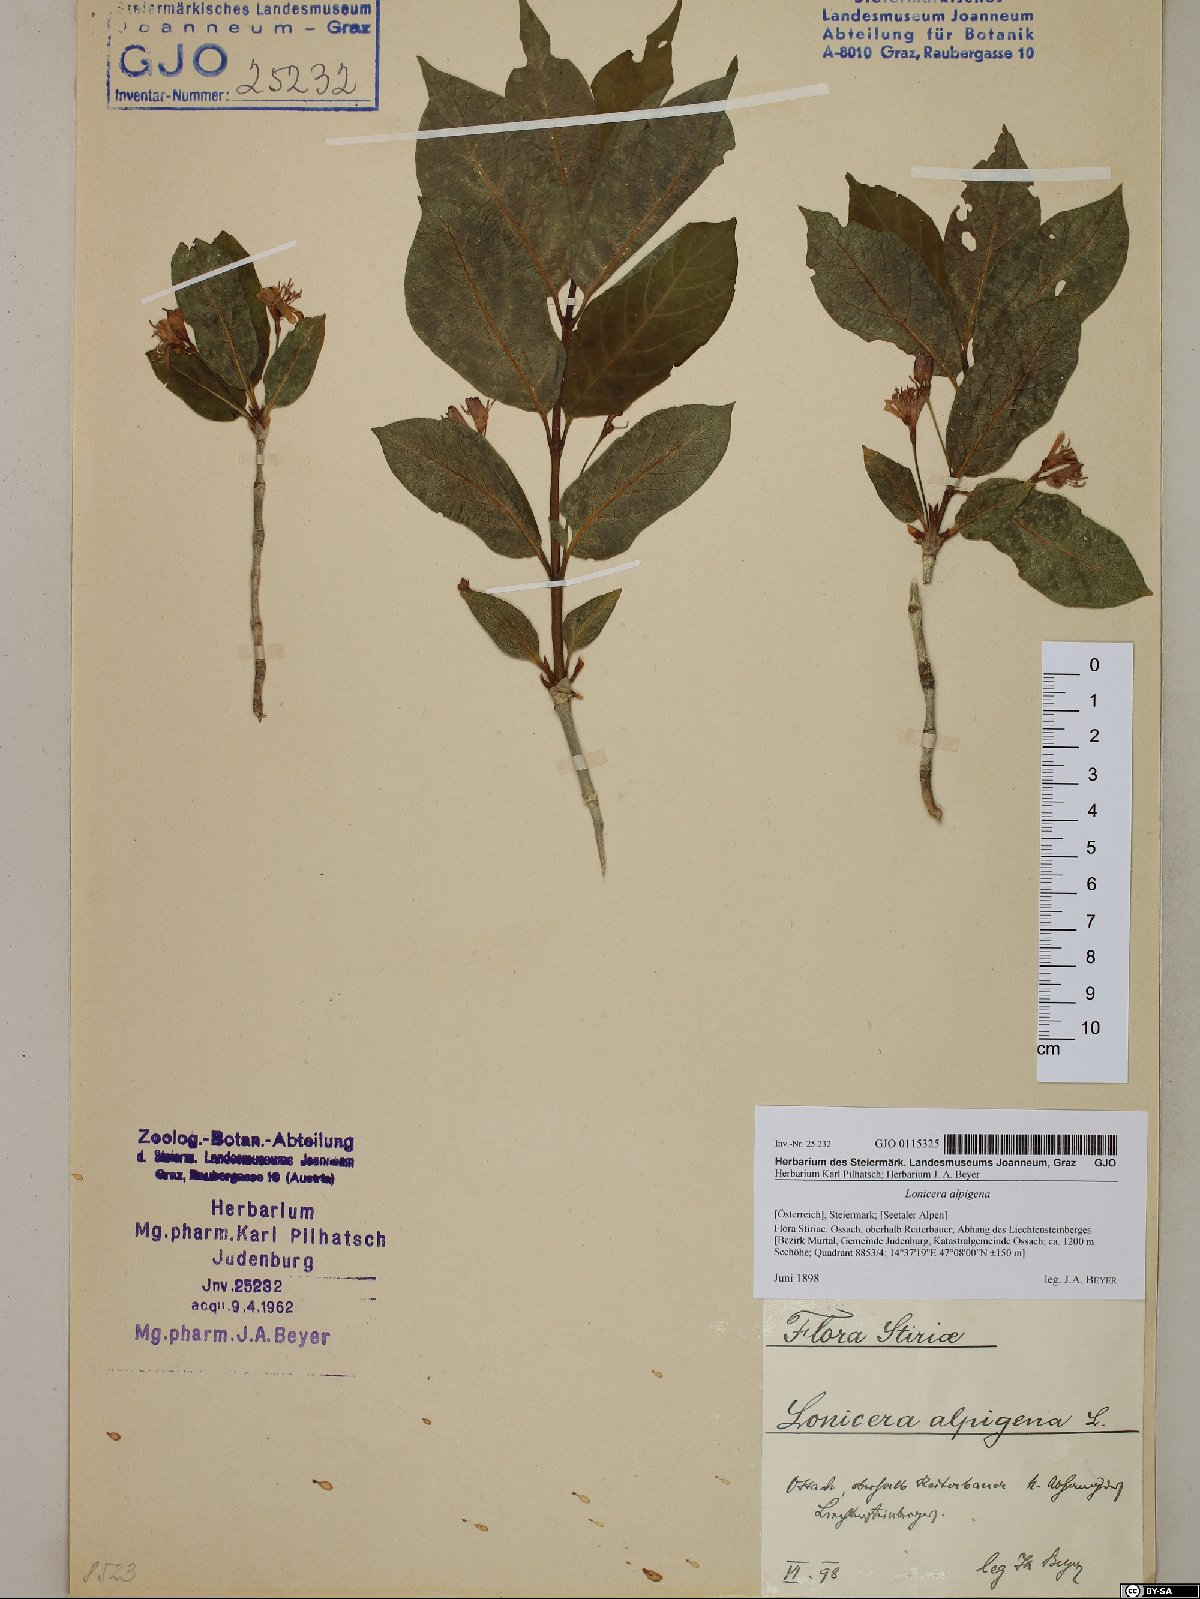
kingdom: Plantae
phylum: Tracheophyta
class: Magnoliopsida
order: Dipsacales
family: Caprifoliaceae
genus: Lonicera
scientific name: Lonicera alpigena
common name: Alpine honeysuckle
